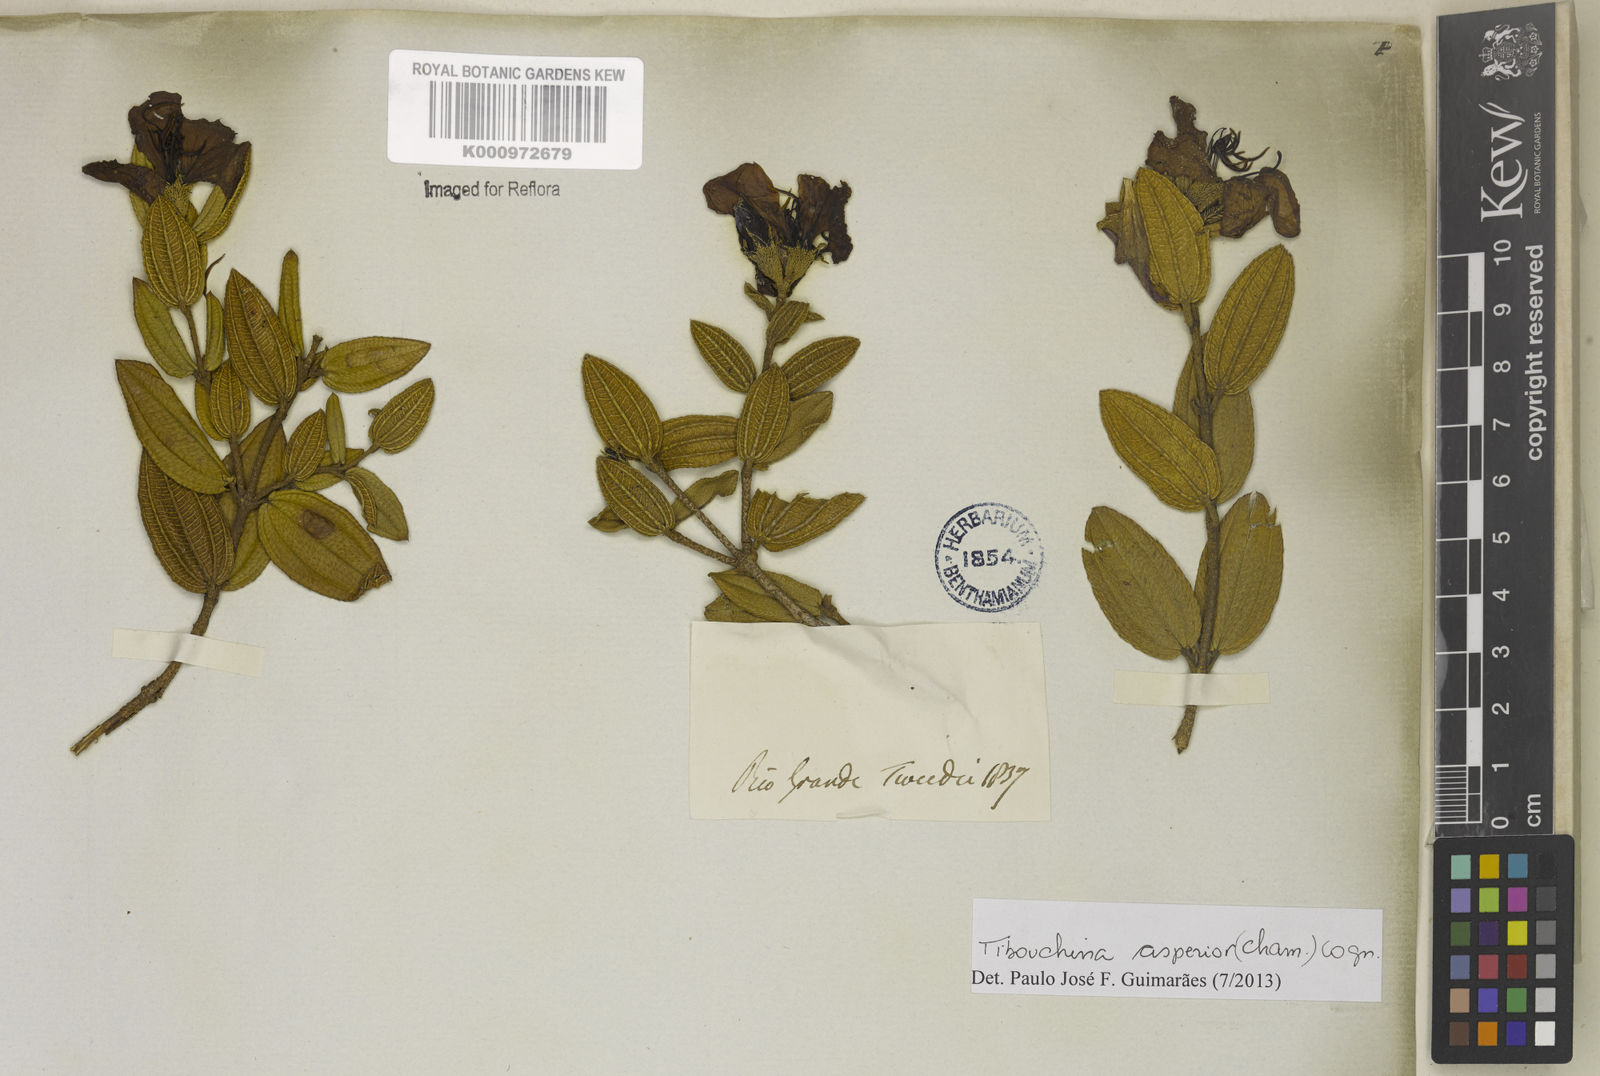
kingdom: Plantae
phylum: Tracheophyta
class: Magnoliopsida
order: Myrtales
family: Melastomataceae
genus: Pleroma
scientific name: Pleroma asperius
